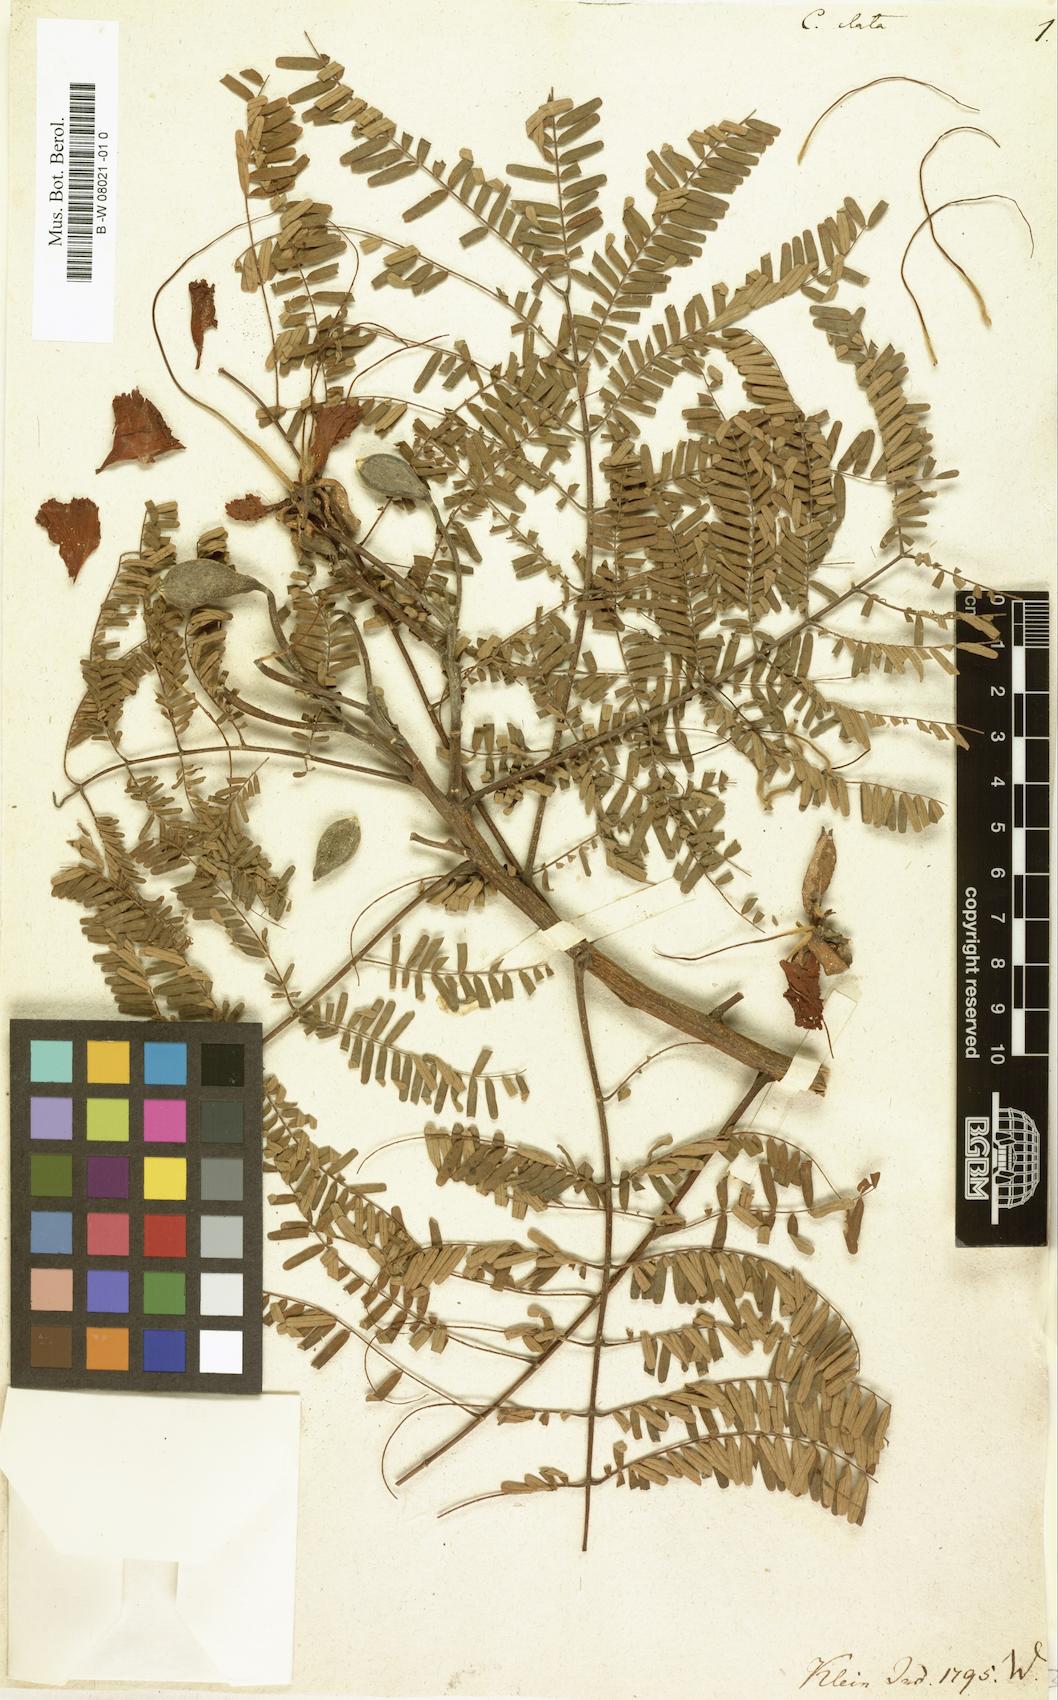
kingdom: Plantae
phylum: Tracheophyta
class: Magnoliopsida
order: Fabales
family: Fabaceae
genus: Delonix
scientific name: Delonix elata
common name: Creamy peacock flower
